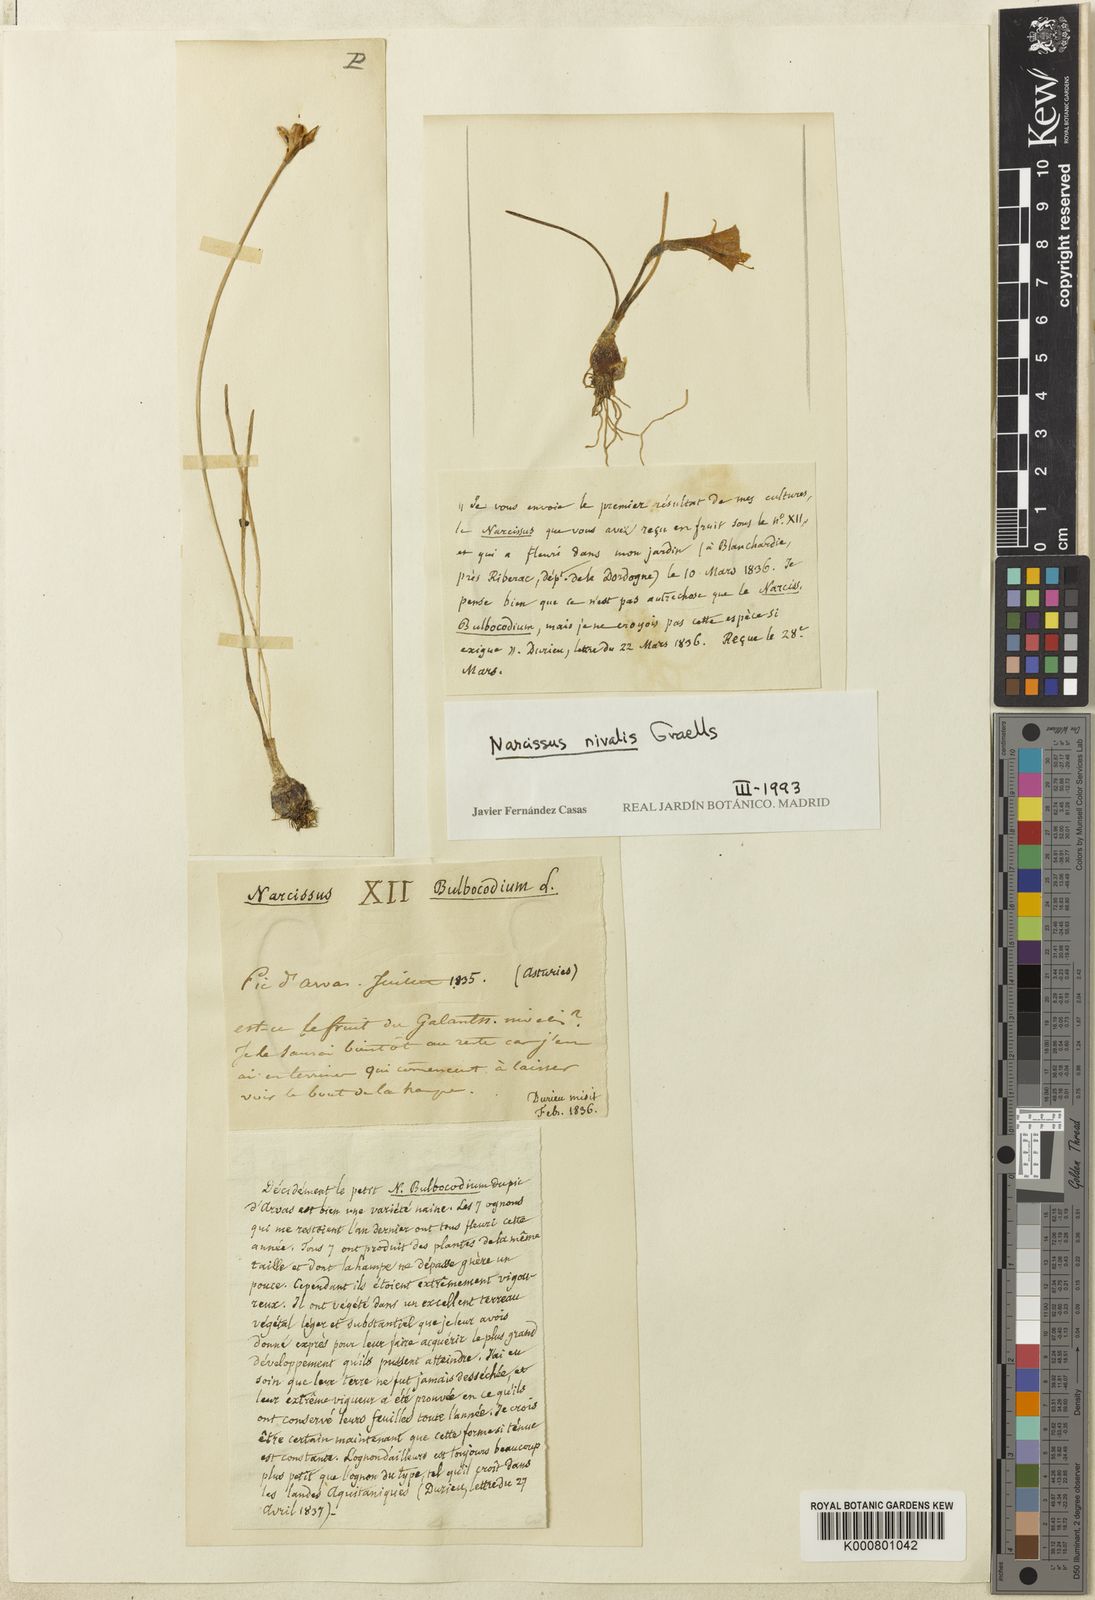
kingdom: Plantae
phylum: Tracheophyta
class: Liliopsida
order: Asparagales
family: Amaryllidaceae
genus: Narcissus
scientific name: Narcissus bulbocodium
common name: Hoop-petticoat daffodil
